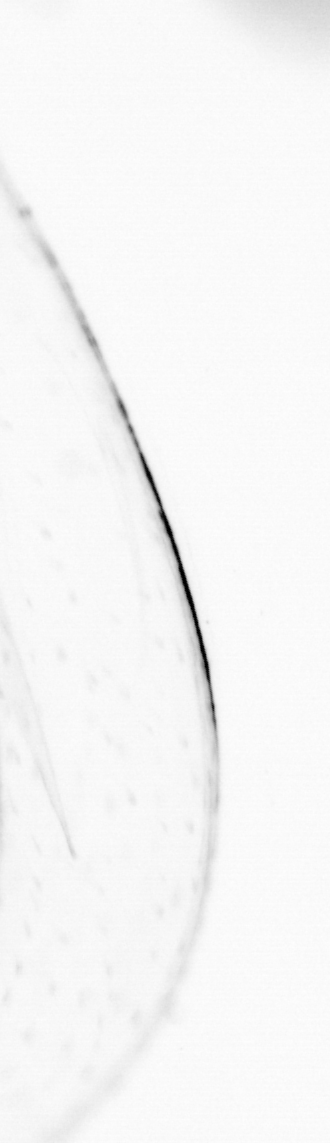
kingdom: Animalia
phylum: Chaetognatha
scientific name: Chaetognatha
